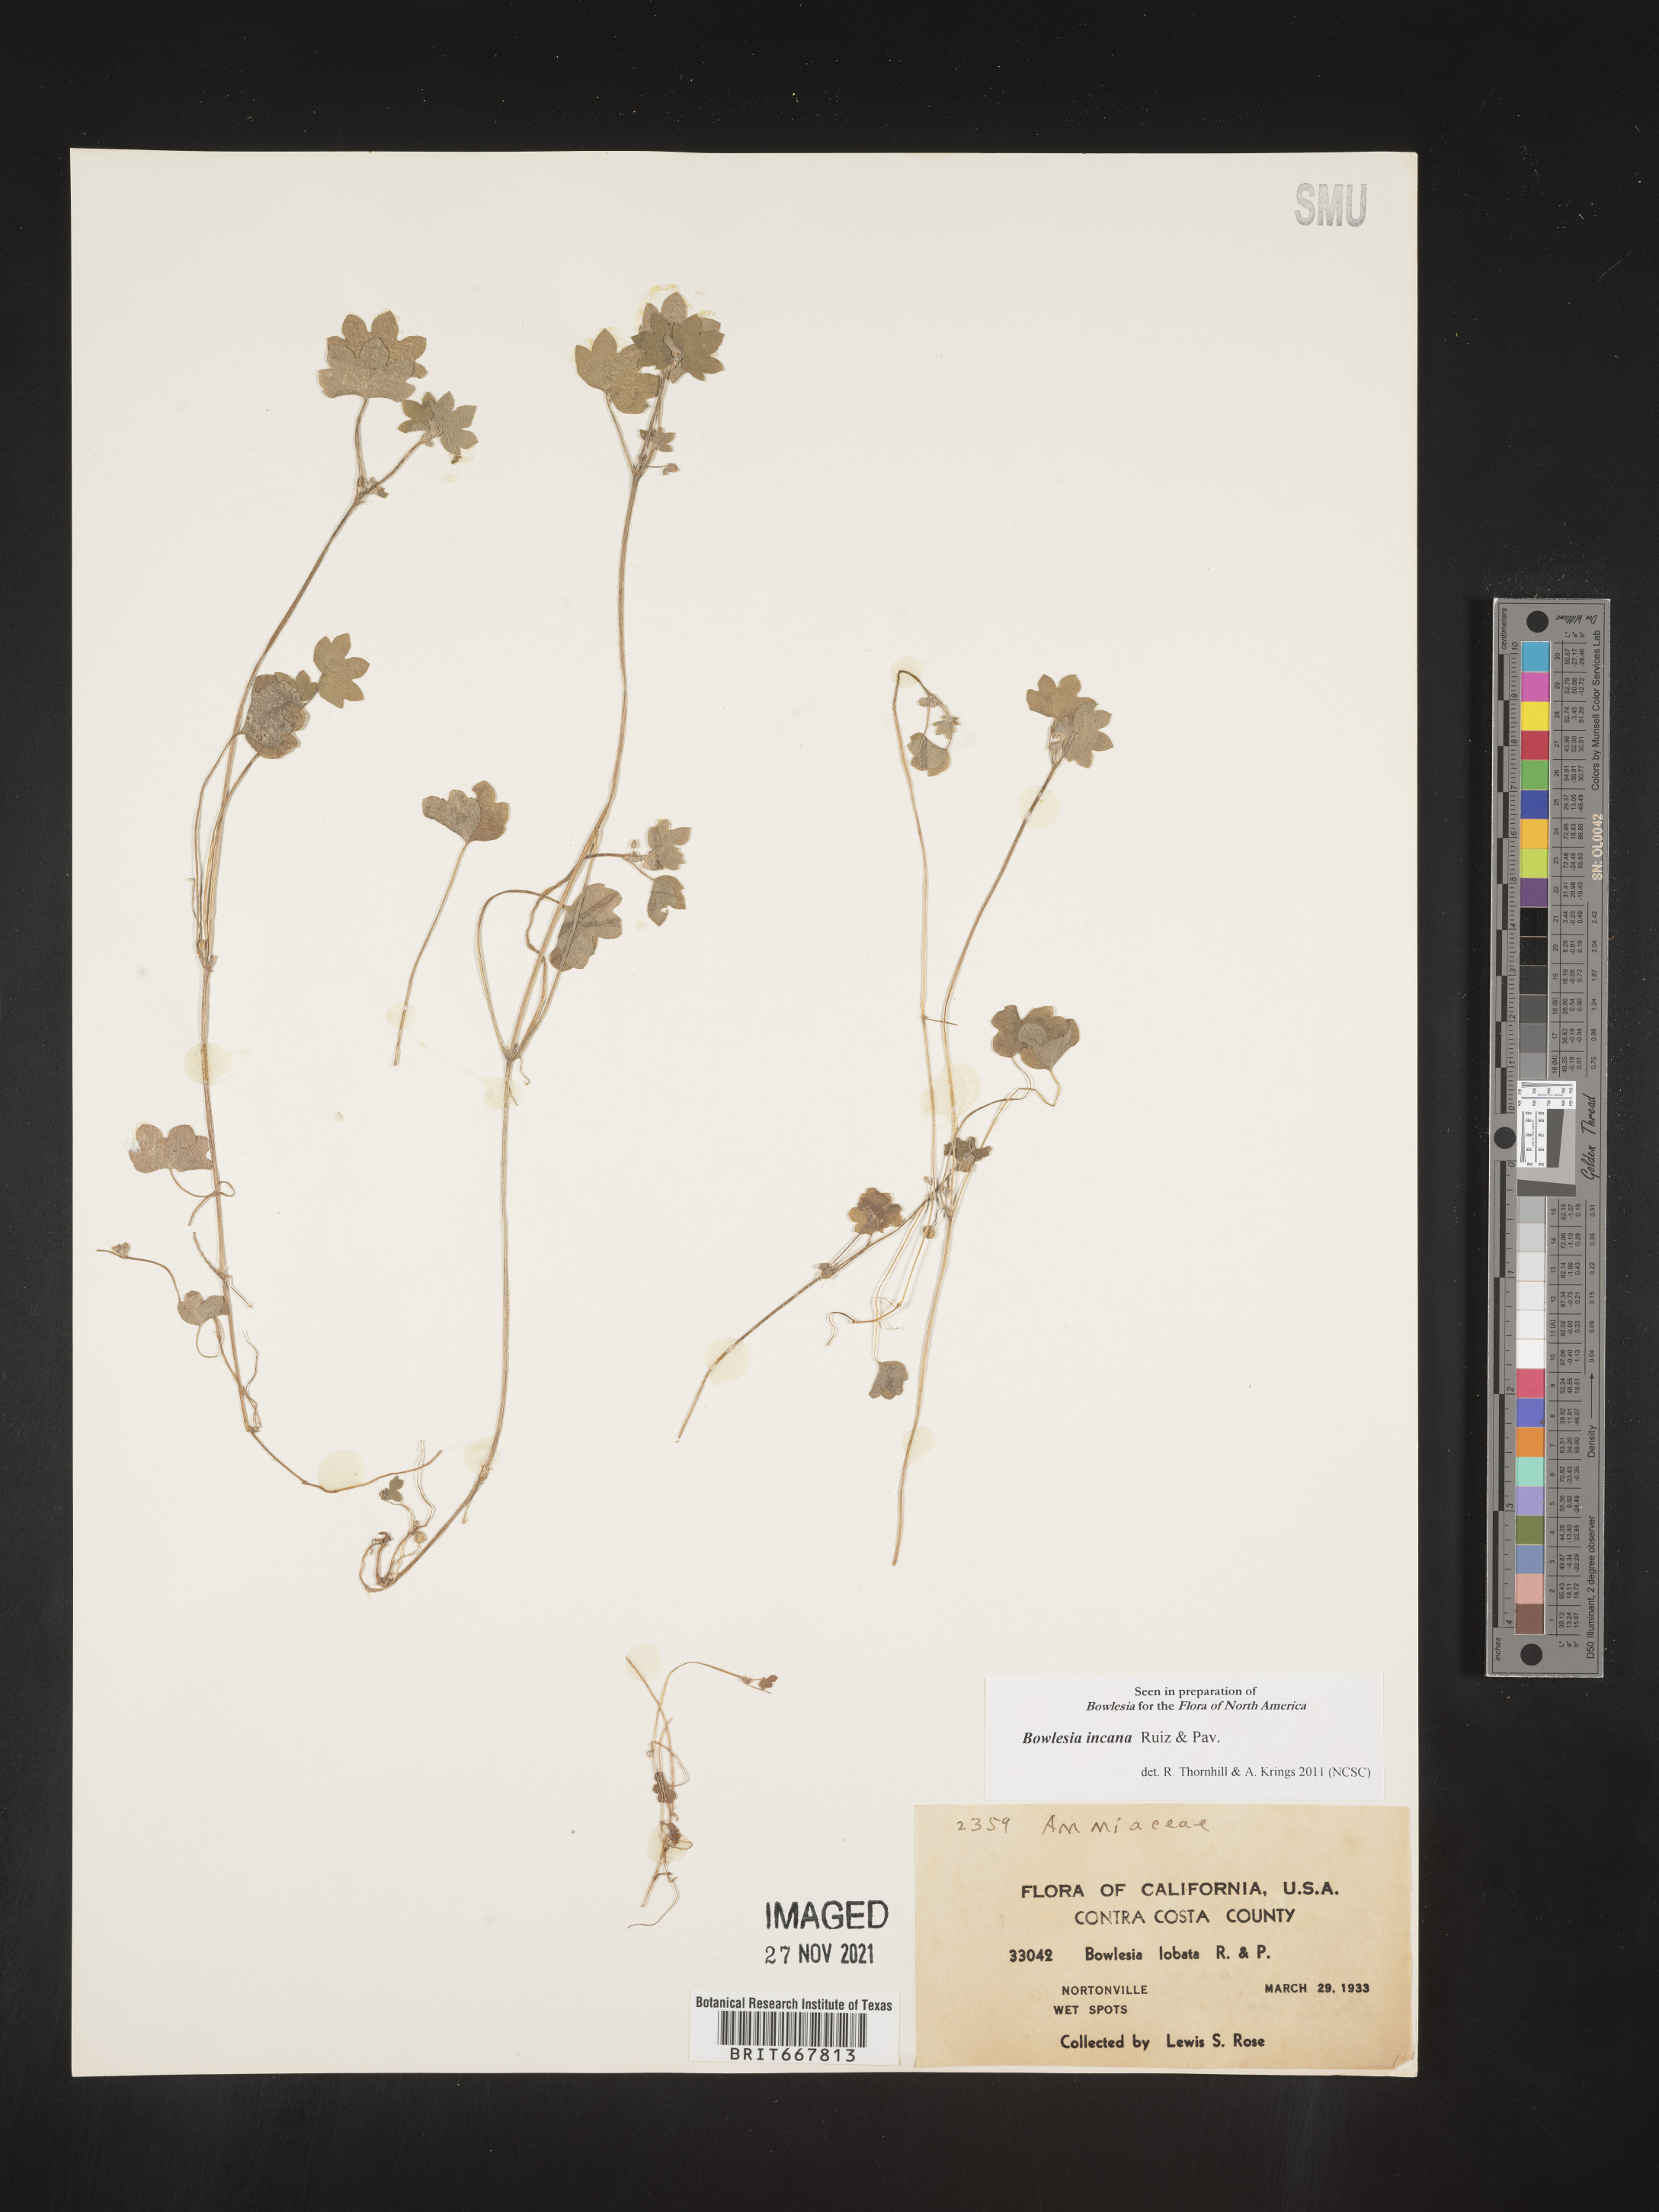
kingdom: Plantae
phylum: Tracheophyta
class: Magnoliopsida
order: Apiales
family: Apiaceae
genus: Bowlesia
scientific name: Bowlesia
